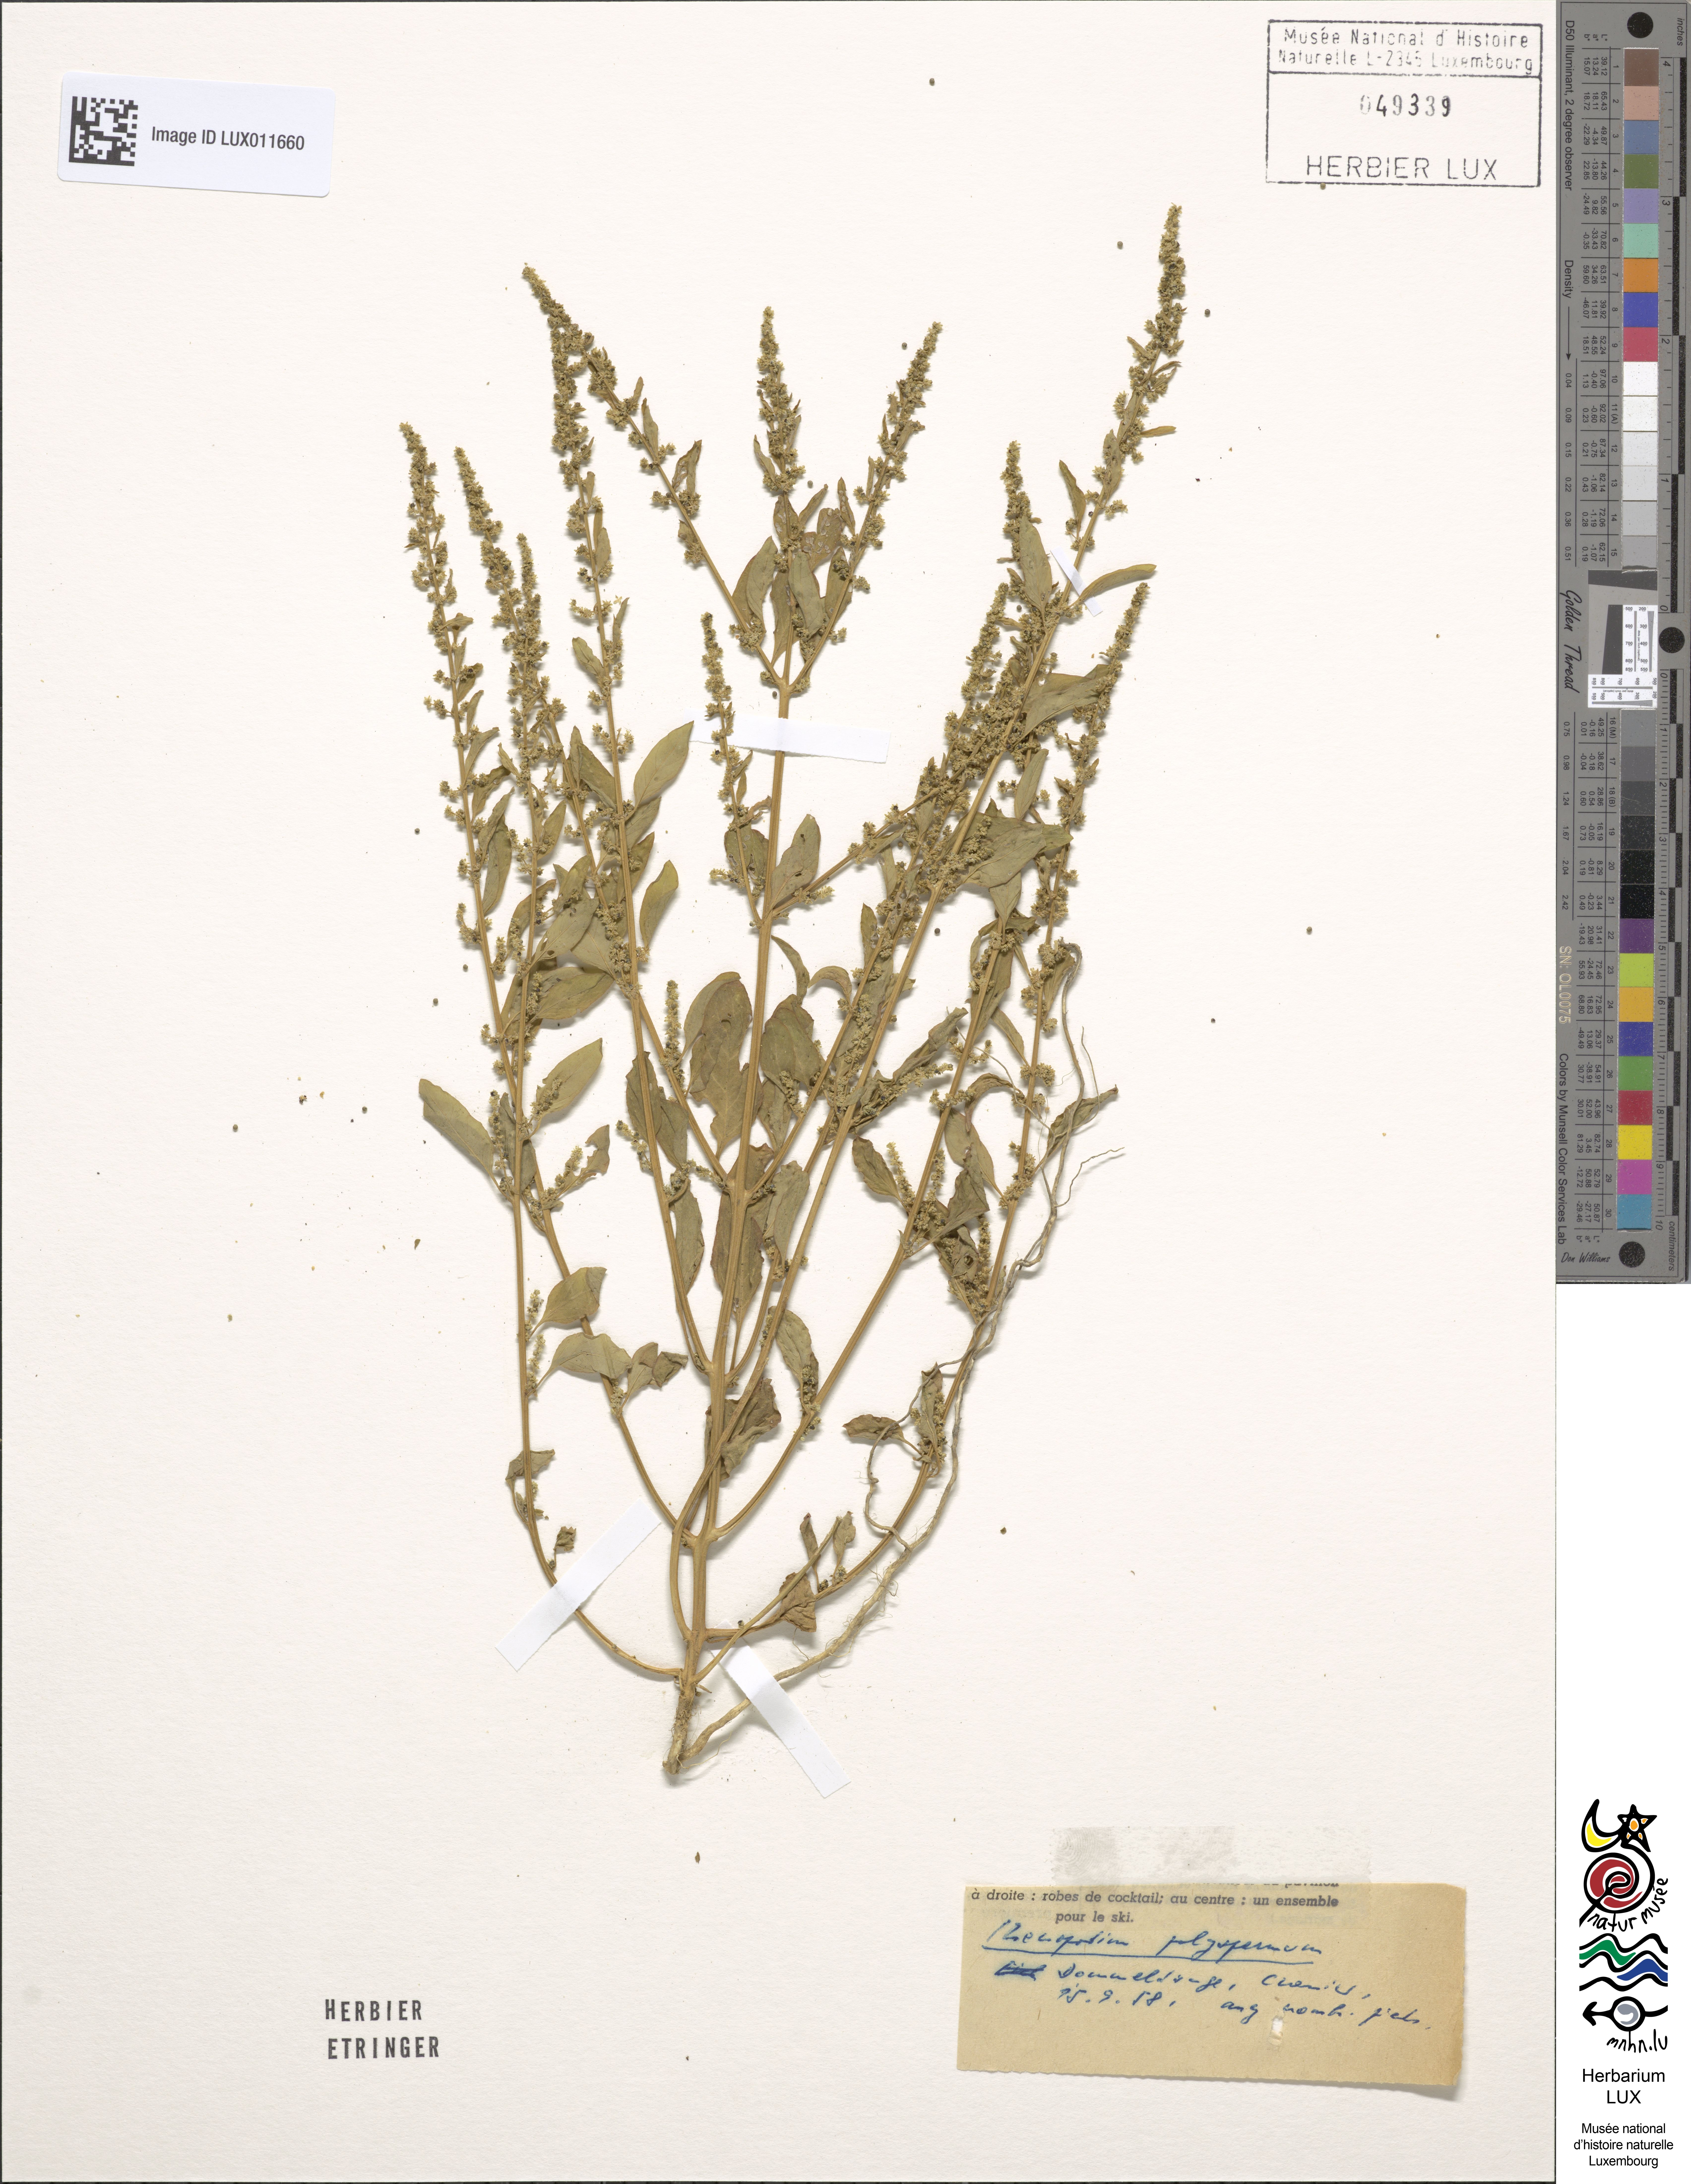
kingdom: Plantae
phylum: Tracheophyta
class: Magnoliopsida
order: Caryophyllales
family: Amaranthaceae
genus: Lipandra
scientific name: Lipandra polysperma
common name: Many-seed goosefoot
